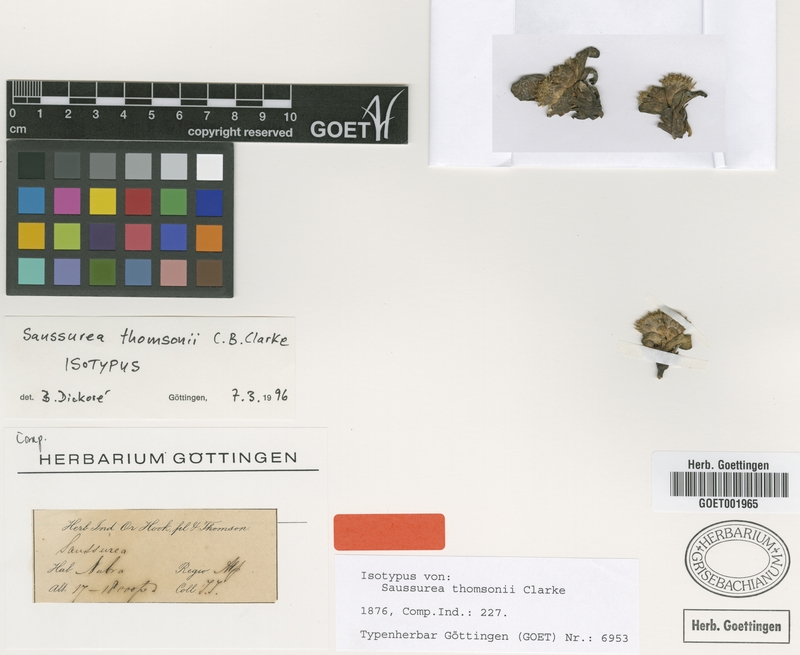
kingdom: Plantae
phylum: Tracheophyta
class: Magnoliopsida
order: Asterales
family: Asteraceae
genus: Saussurea
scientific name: Saussurea thomsonii
